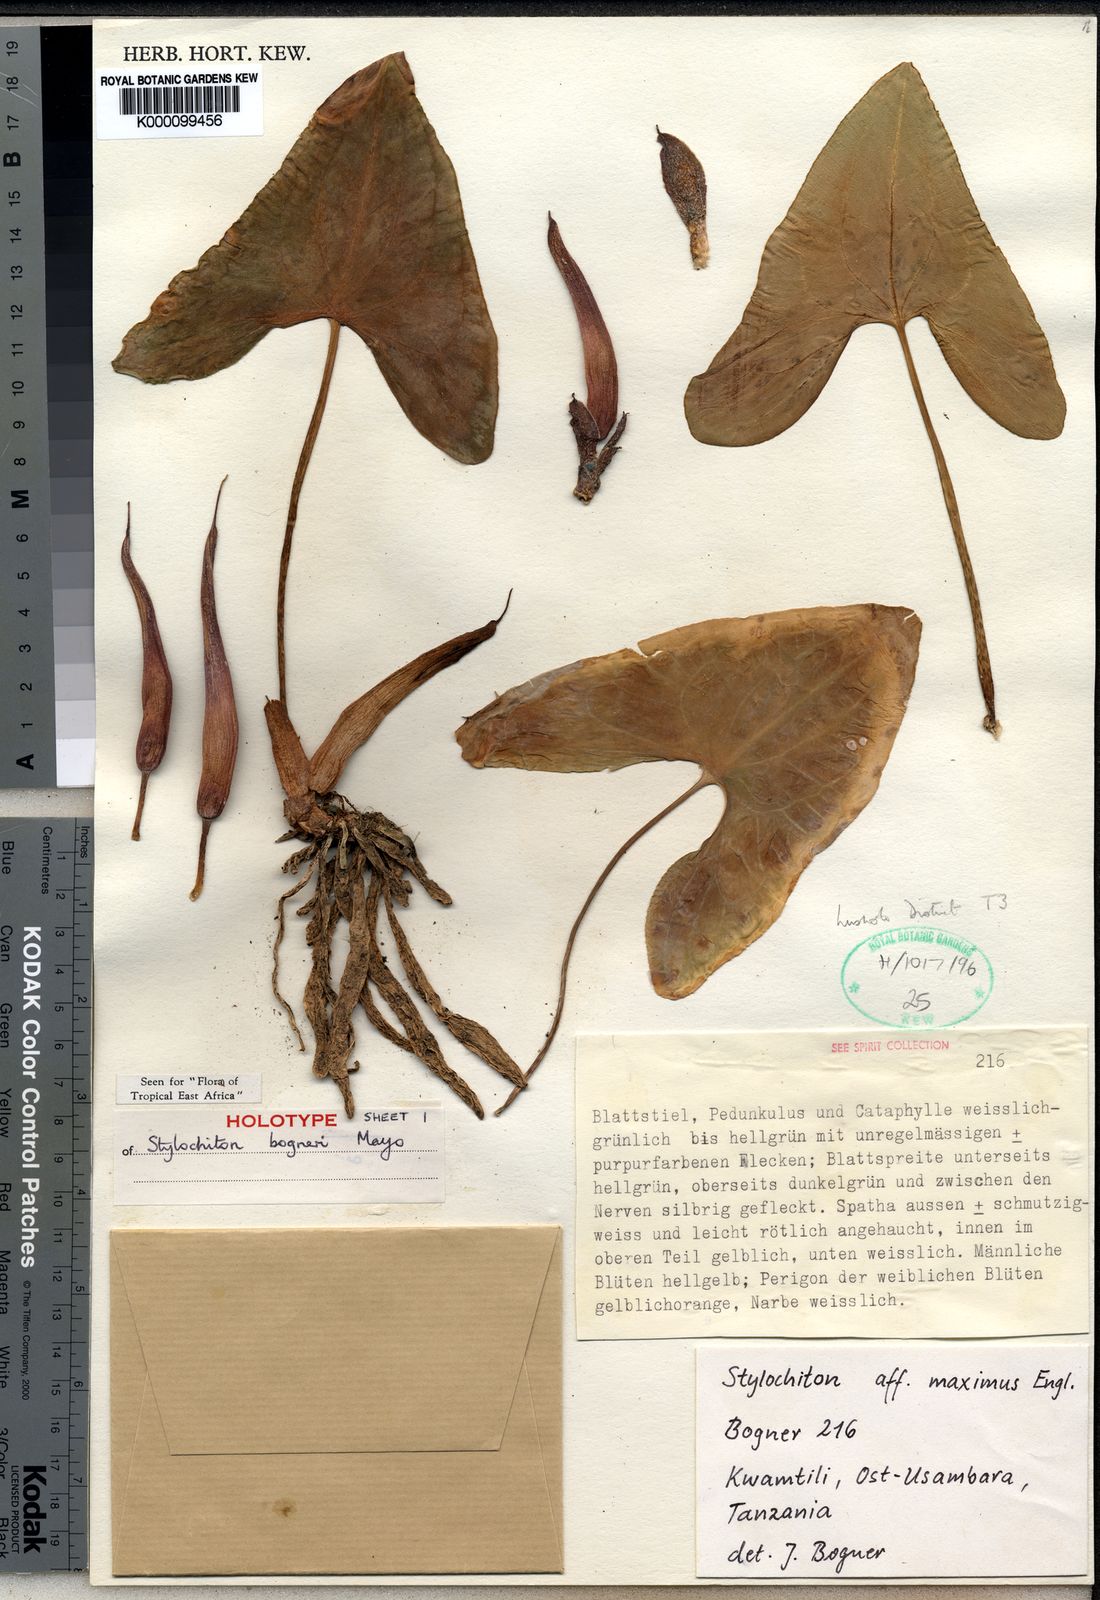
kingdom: Plantae
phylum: Tracheophyta
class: Liliopsida
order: Alismatales
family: Araceae
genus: Stylochaeton
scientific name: Stylochaeton bogneri
